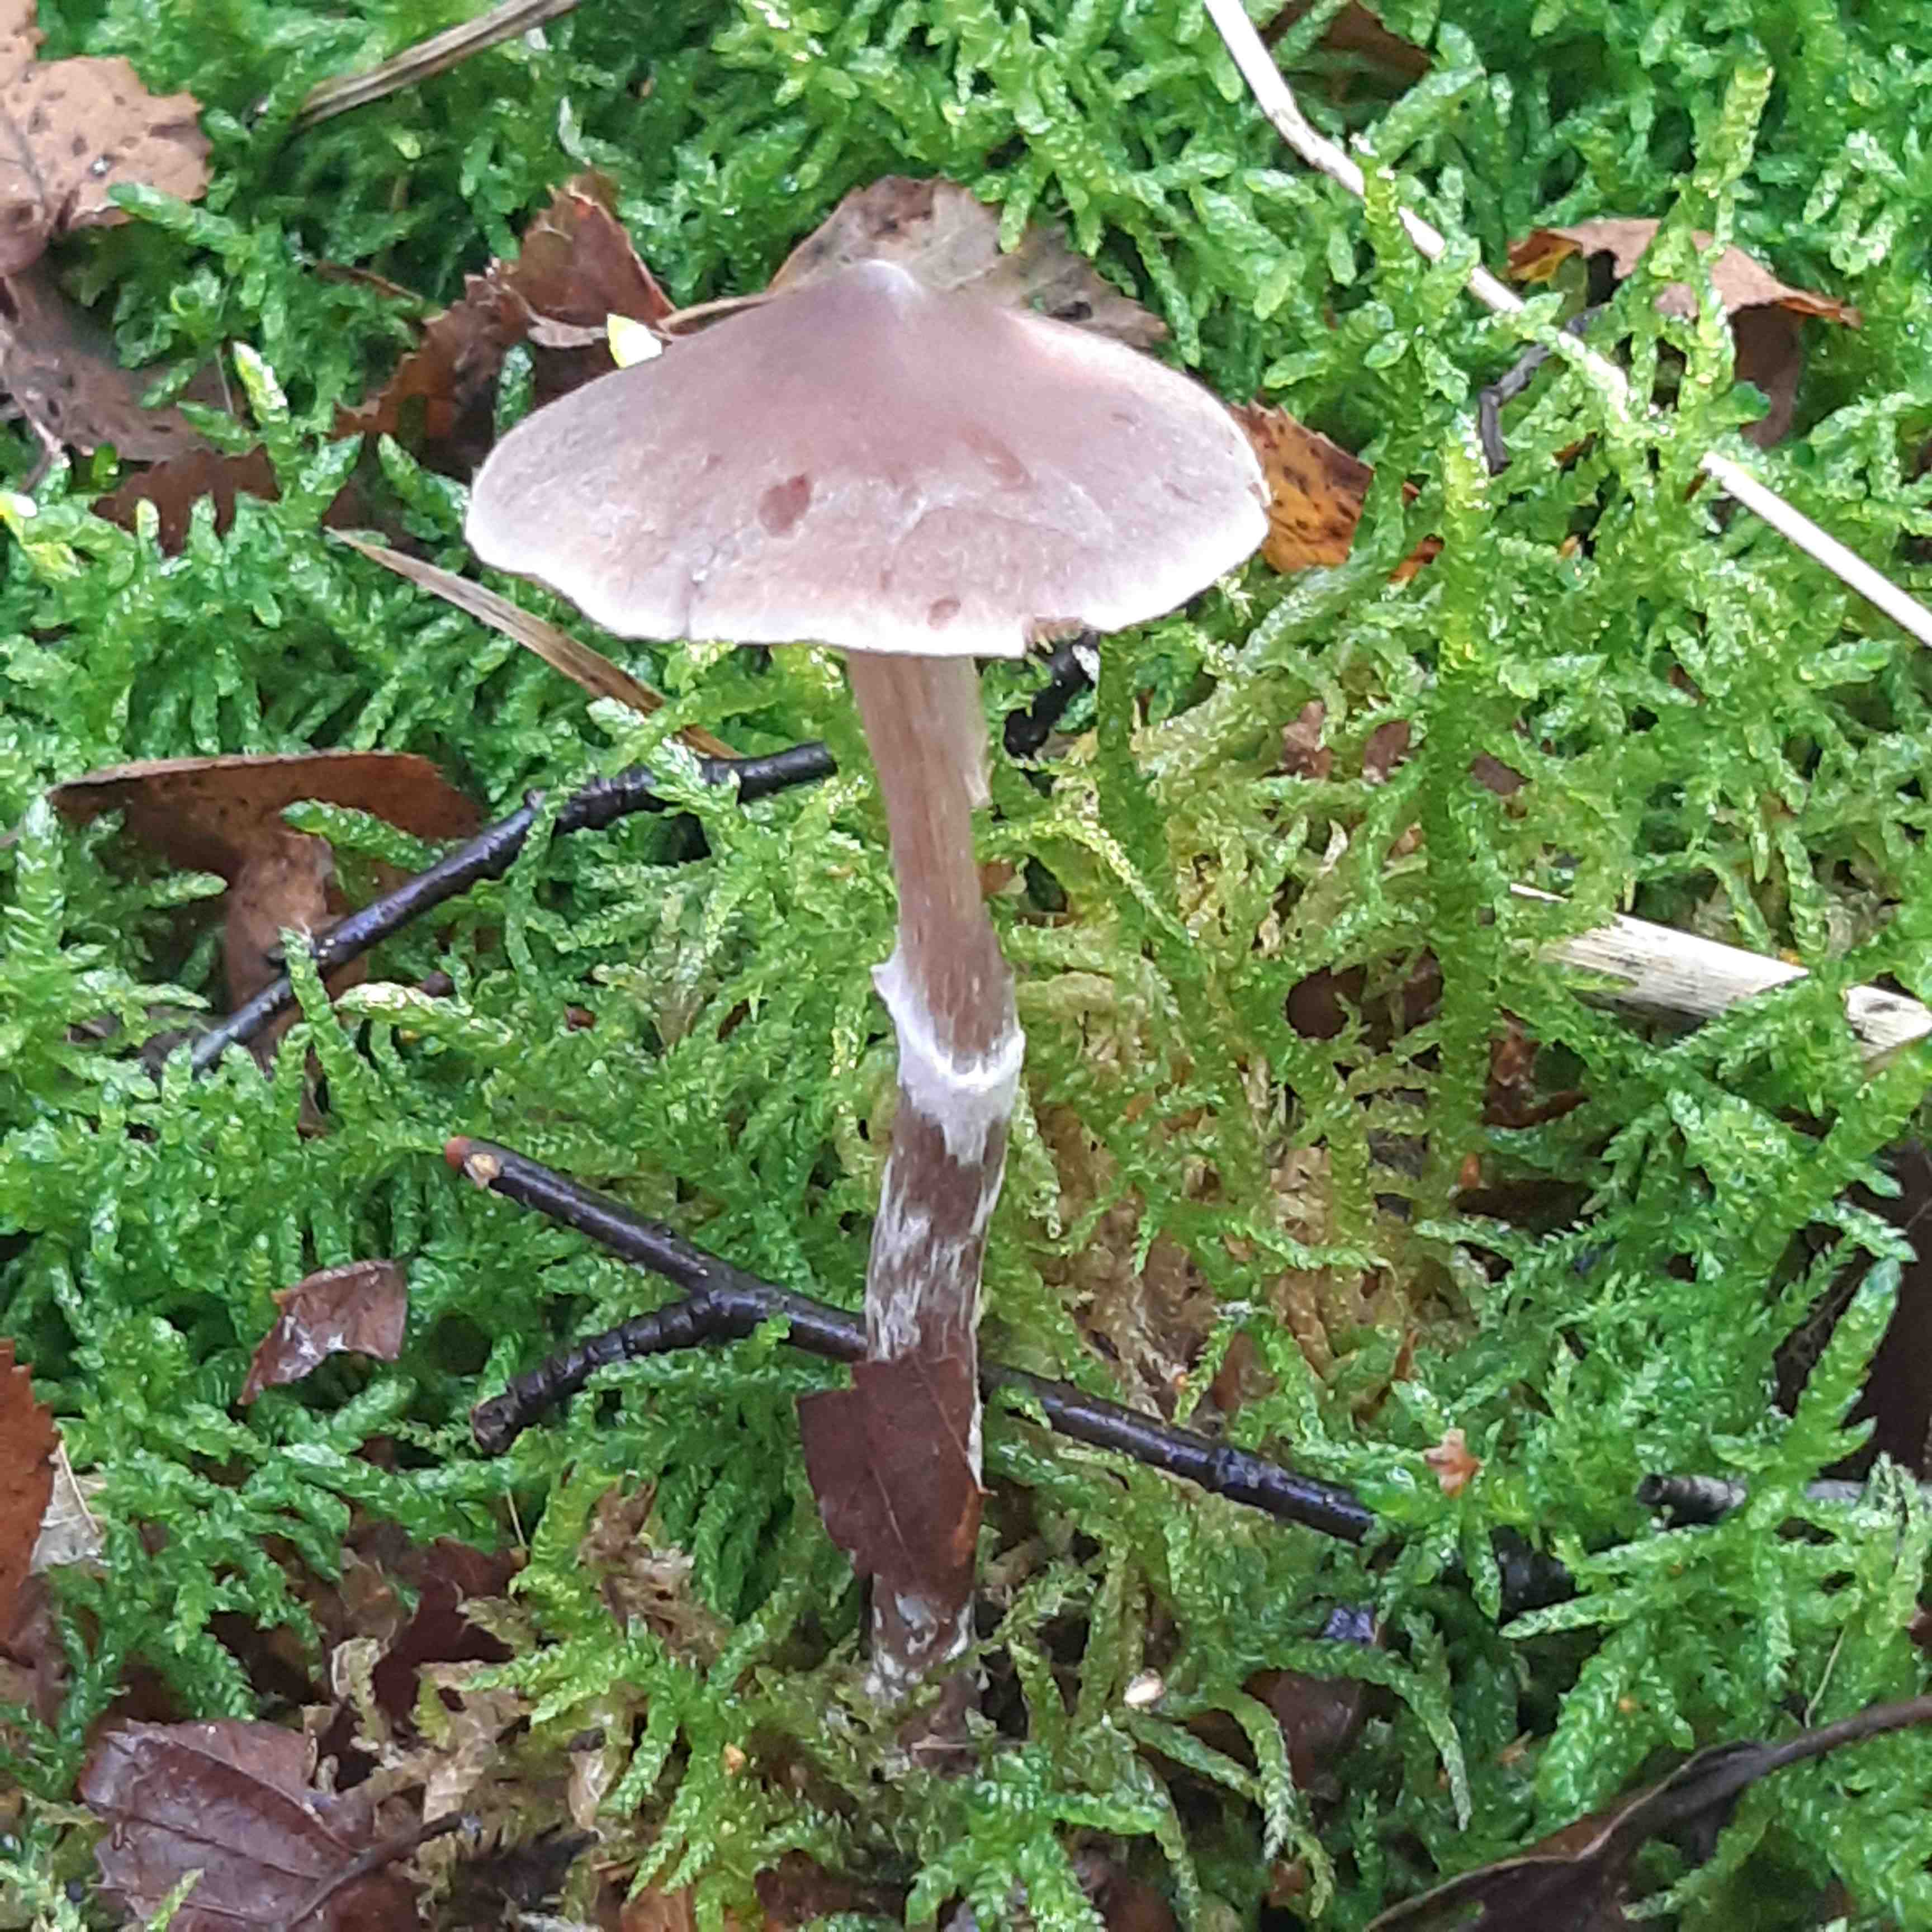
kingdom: Fungi
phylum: Basidiomycota
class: Agaricomycetes
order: Agaricales
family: Cortinariaceae
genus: Cortinarius
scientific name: Cortinarius
